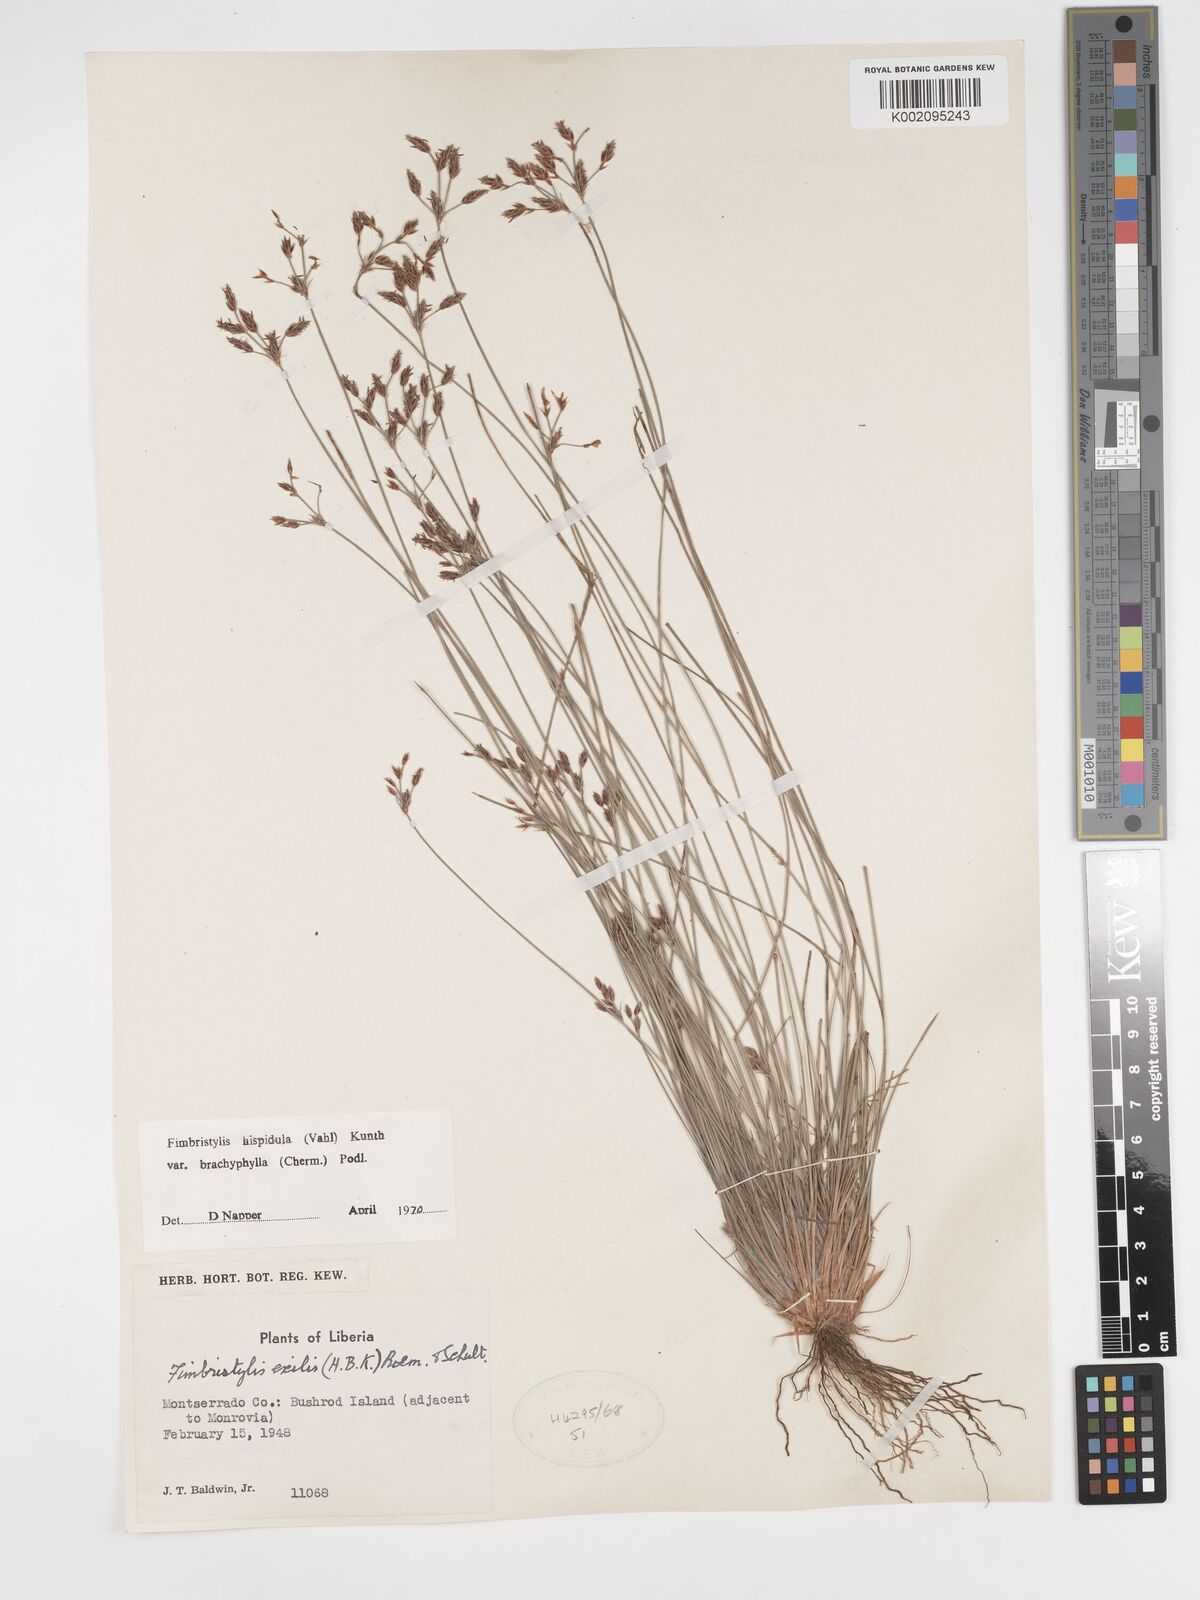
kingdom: Plantae
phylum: Tracheophyta
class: Liliopsida
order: Poales
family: Cyperaceae
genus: Bulbostylis
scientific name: Bulbostylis hispidula
